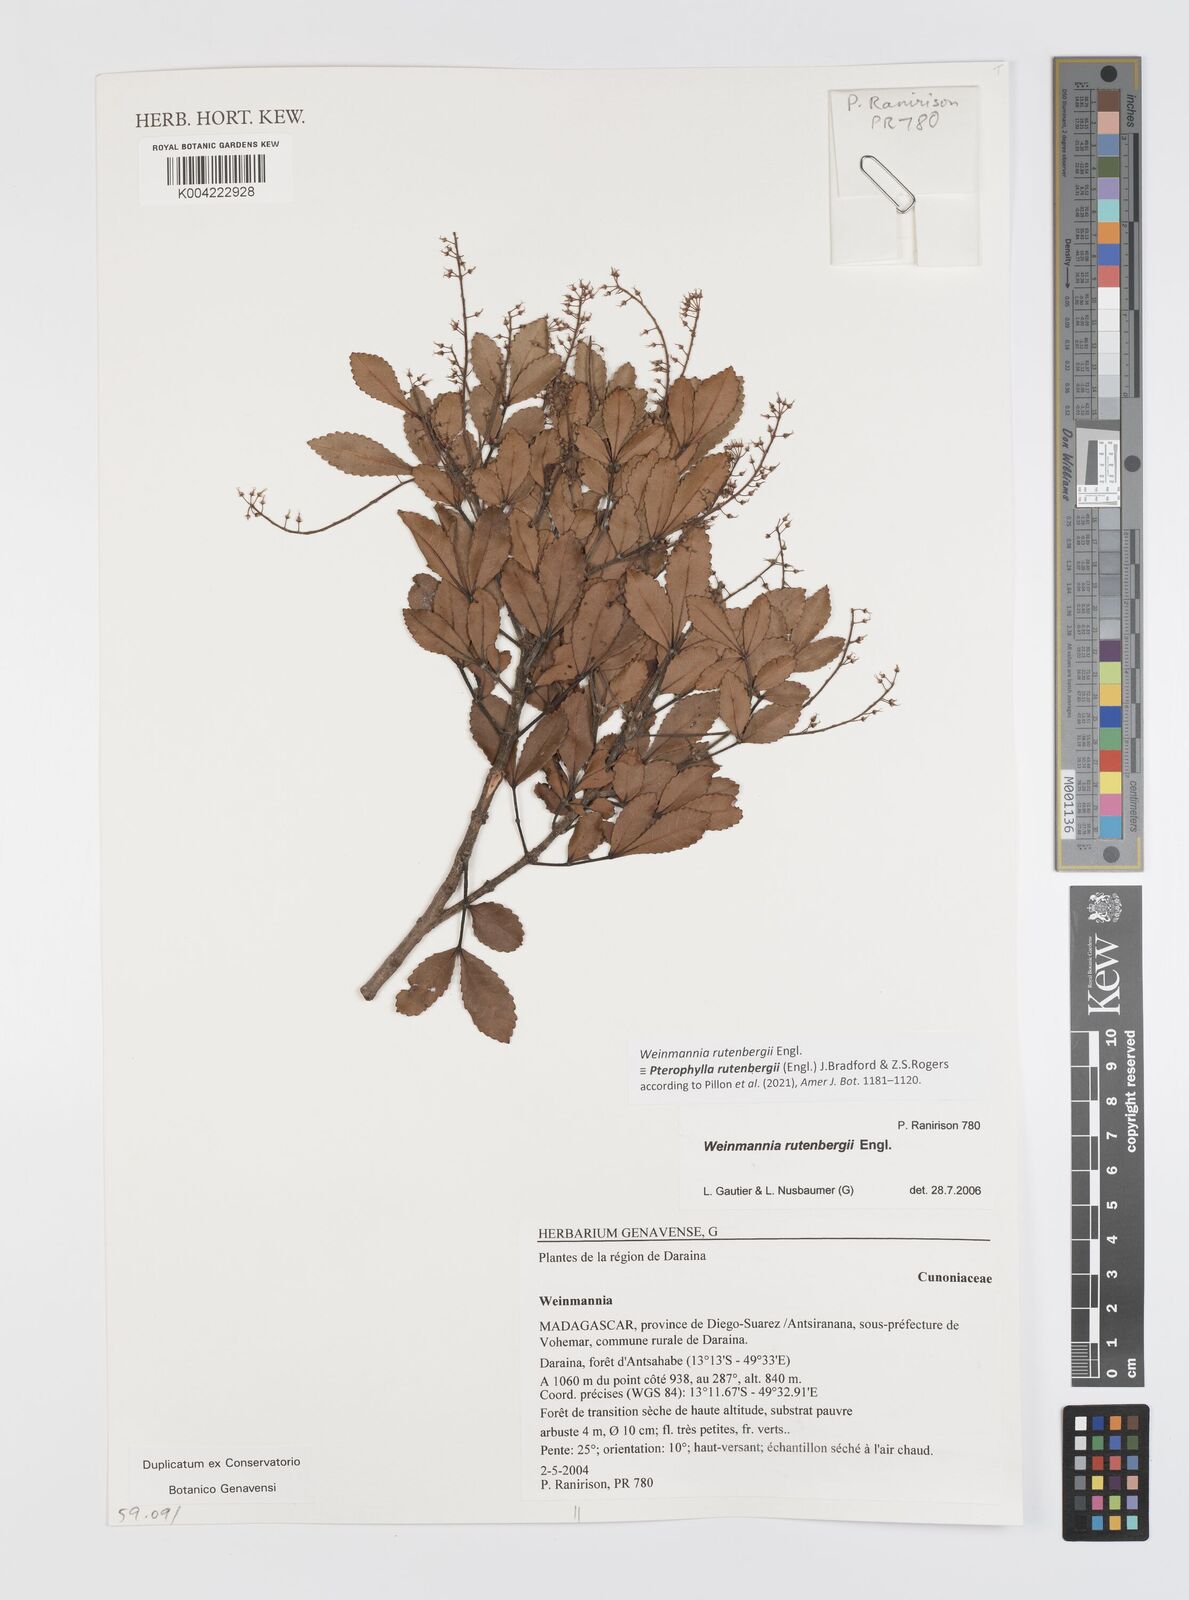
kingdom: Plantae
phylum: Tracheophyta
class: Magnoliopsida
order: Oxalidales
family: Cunoniaceae
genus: Pterophylla
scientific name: Pterophylla rutenbergii
